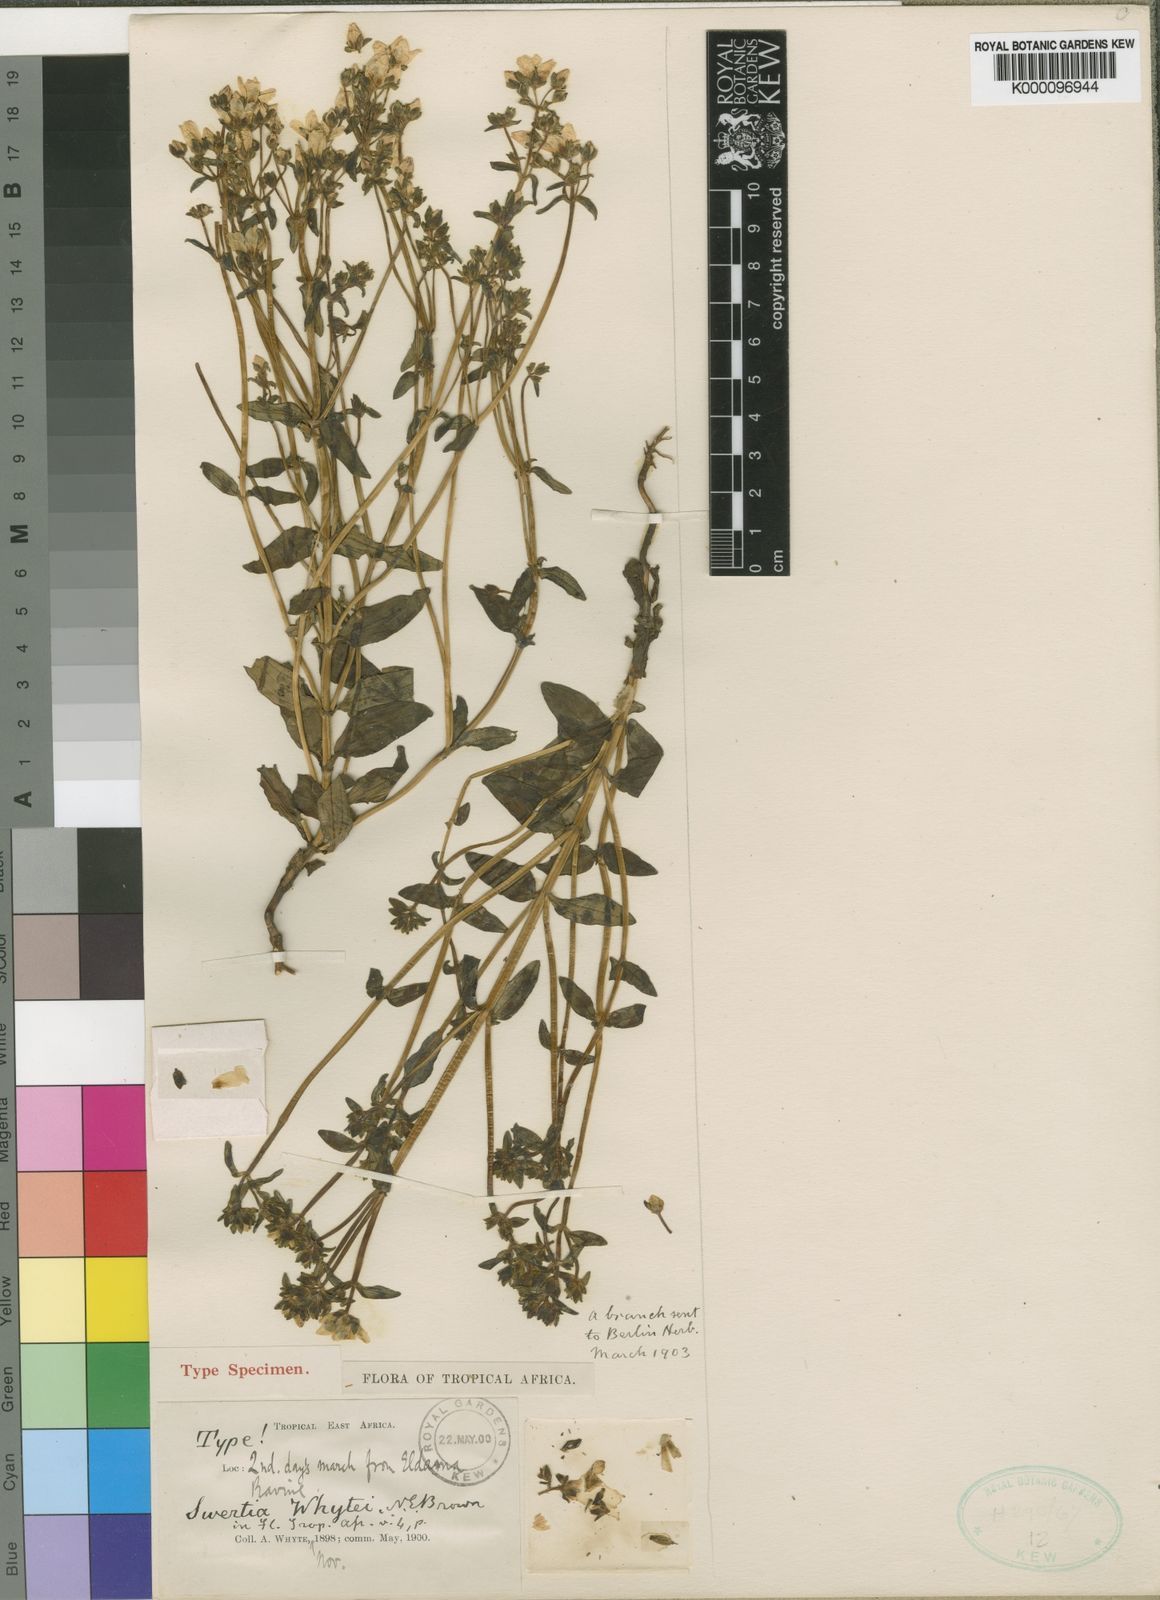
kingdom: Plantae
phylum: Tracheophyta
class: Magnoliopsida
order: Gentianales
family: Gentianaceae
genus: Swertia
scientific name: Swertia usambarensis
